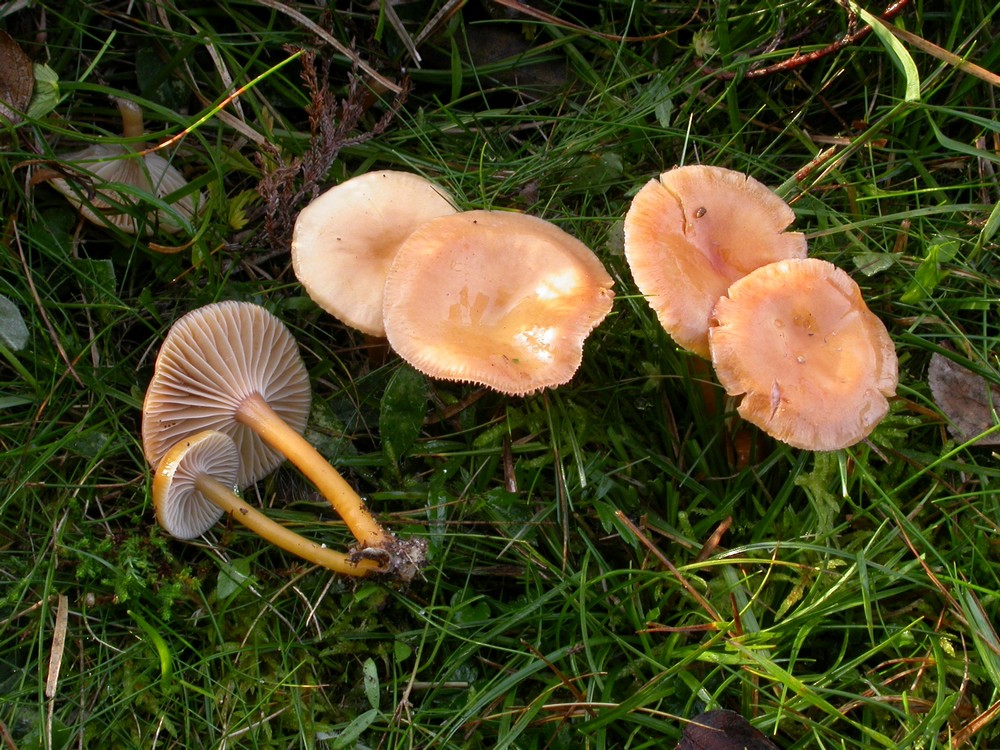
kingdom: Fungi
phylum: Basidiomycota
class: Agaricomycetes
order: Agaricales
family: Hygrophoraceae
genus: Gliophorus
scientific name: Gliophorus laetus
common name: brusk-vokshat
